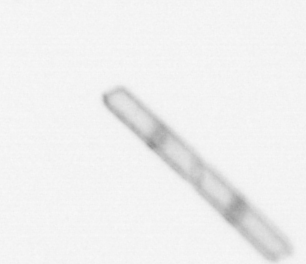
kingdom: Chromista
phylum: Ochrophyta
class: Bacillariophyceae
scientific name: Bacillariophyceae
